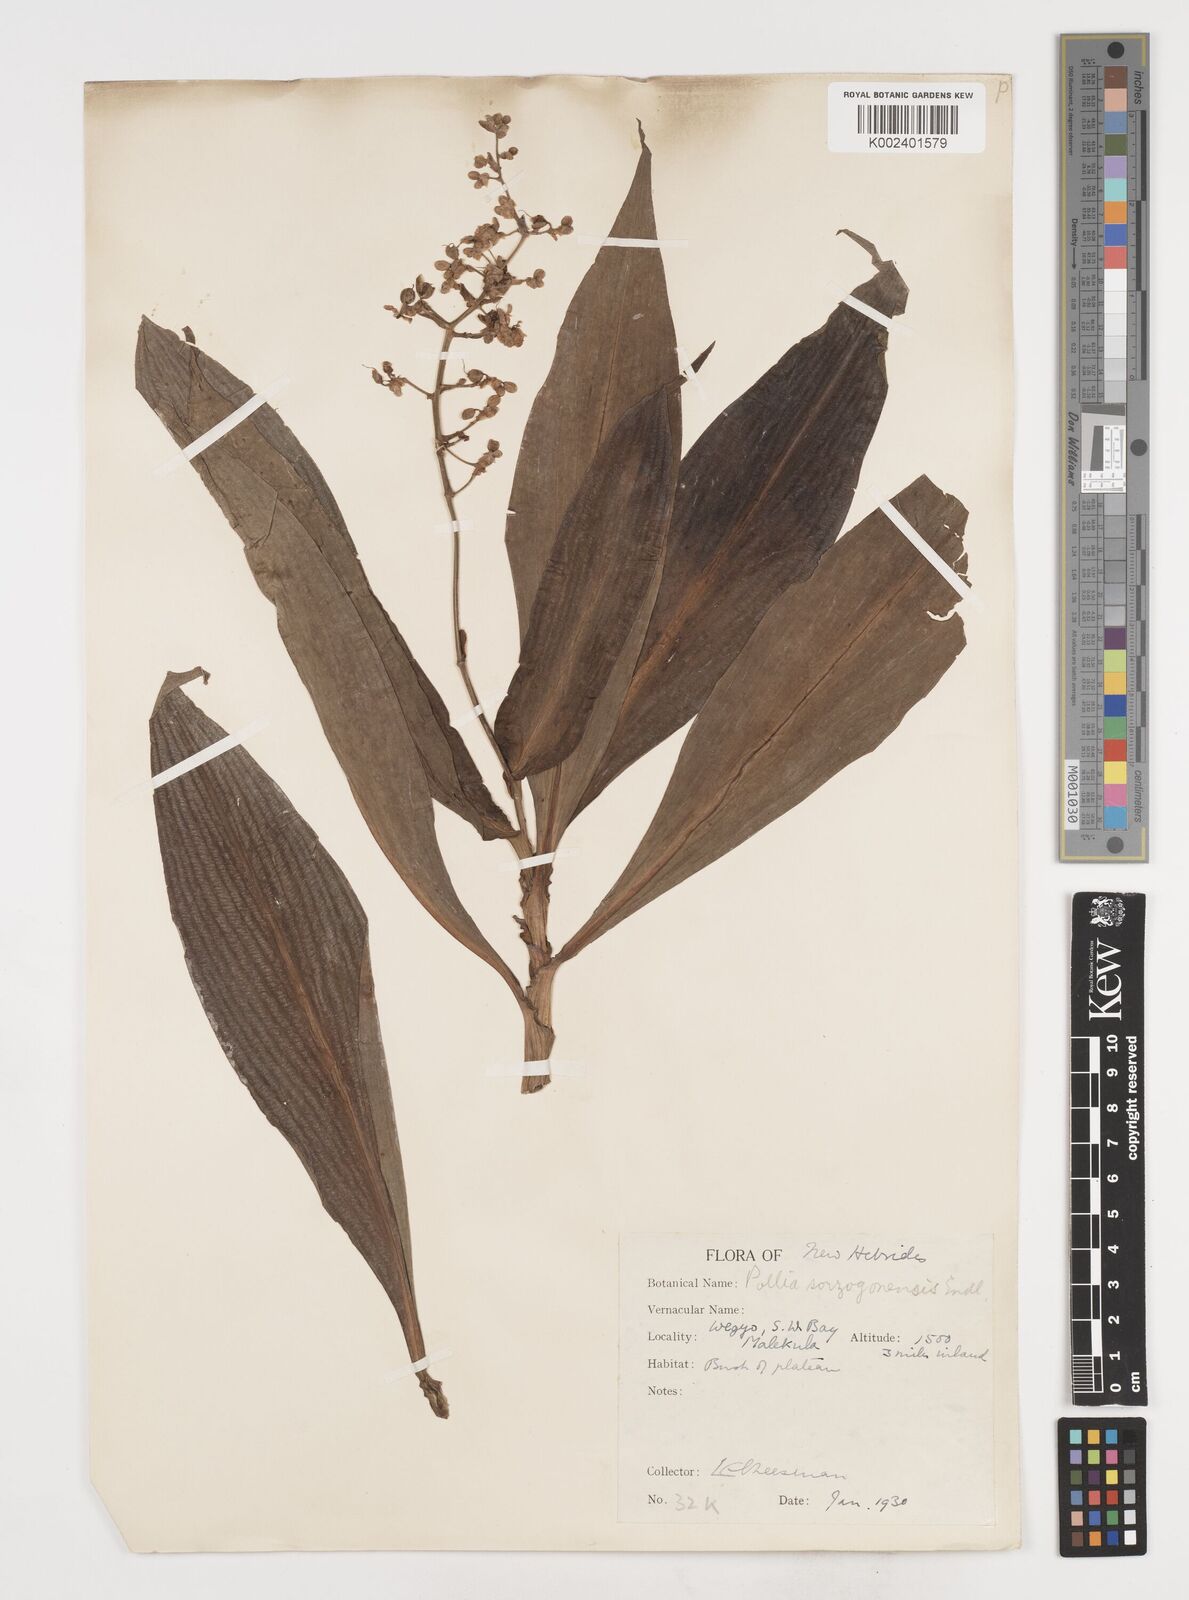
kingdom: Plantae
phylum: Tracheophyta
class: Liliopsida
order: Commelinales
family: Commelinaceae
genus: Pollia
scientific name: Pollia secundiflora
